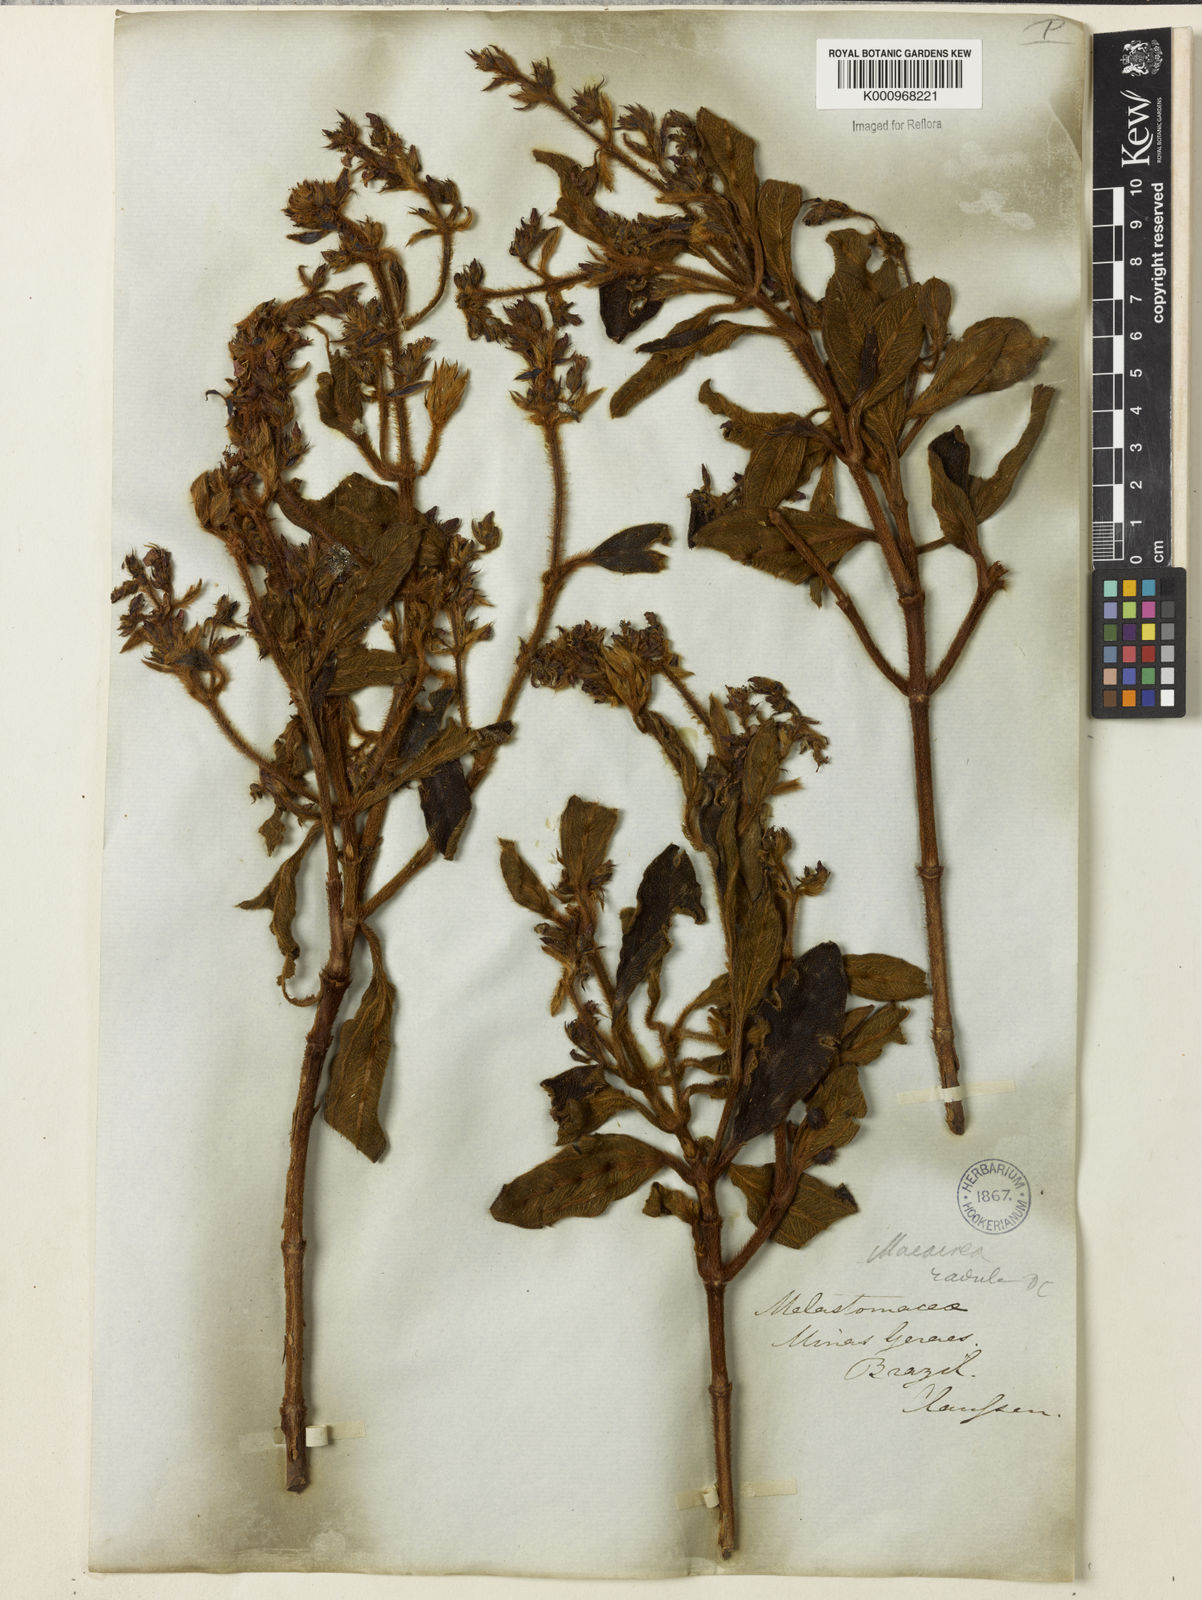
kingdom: Plantae
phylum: Tracheophyta
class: Magnoliopsida
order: Myrtales
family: Melastomataceae
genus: Macairea
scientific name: Macairea radula
